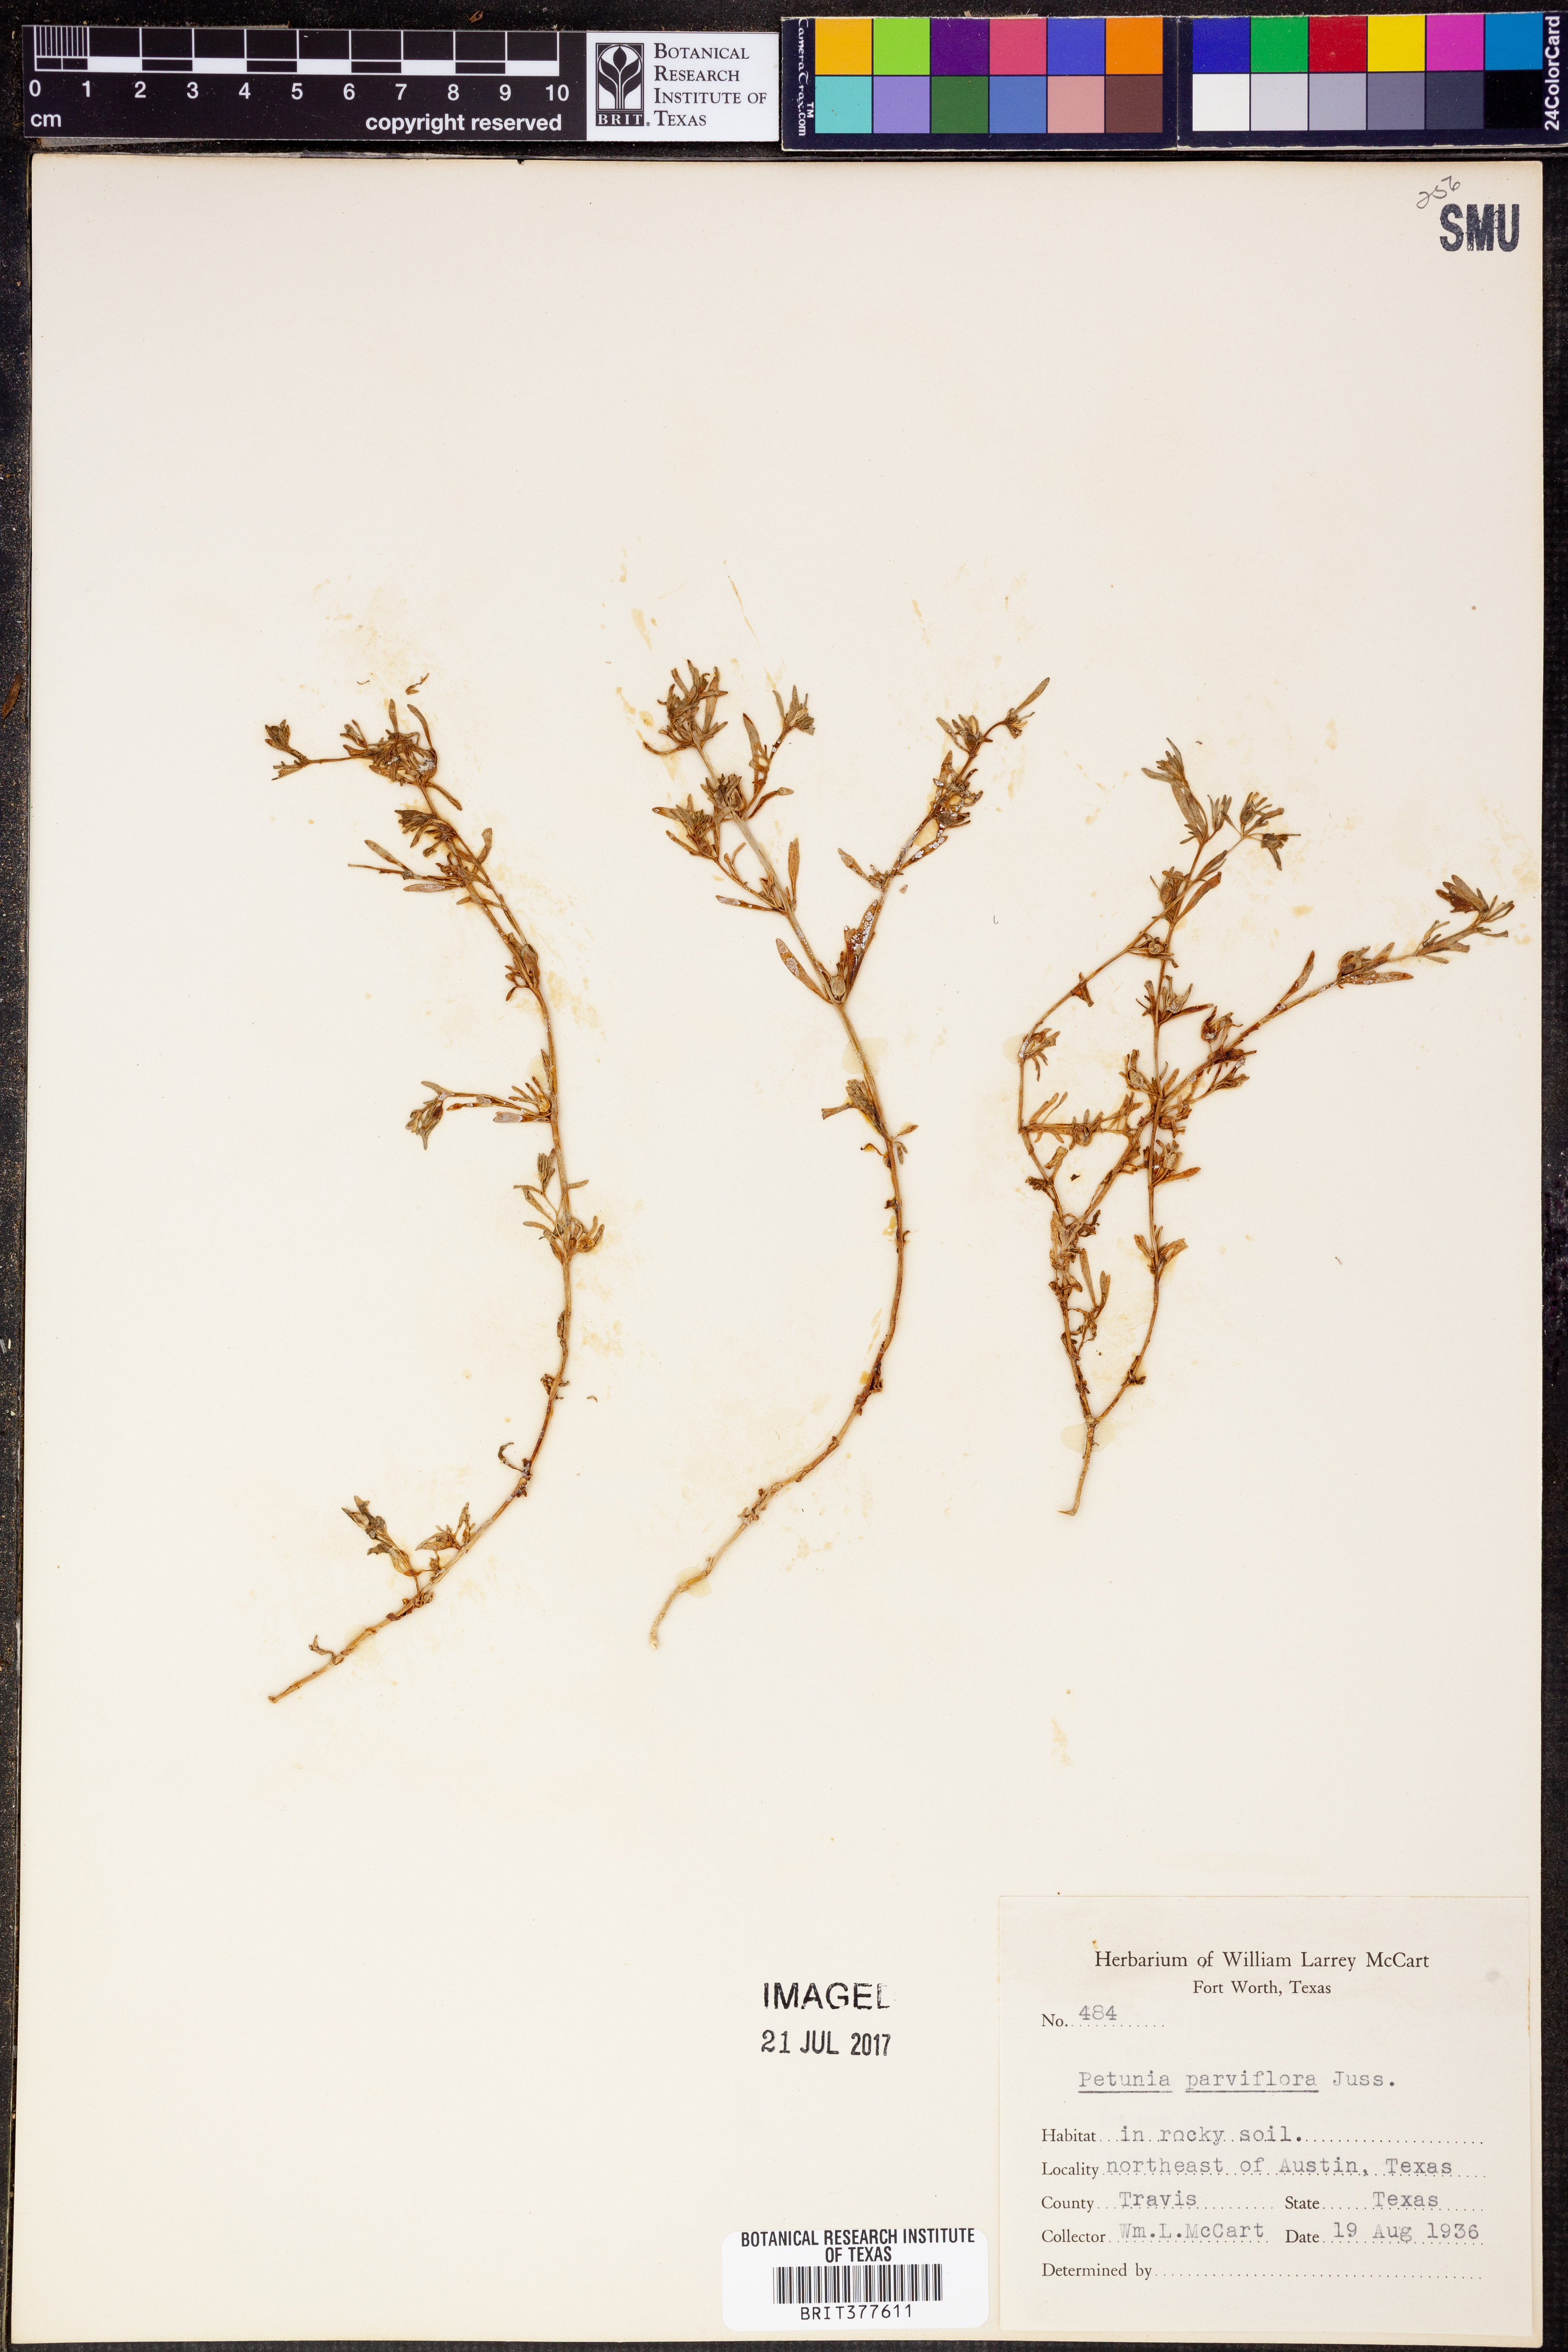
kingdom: Plantae
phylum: Tracheophyta
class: Magnoliopsida
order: Solanales
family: Solanaceae
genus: Calibrachoa
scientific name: Calibrachoa parviflora
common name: Seaside petunia
